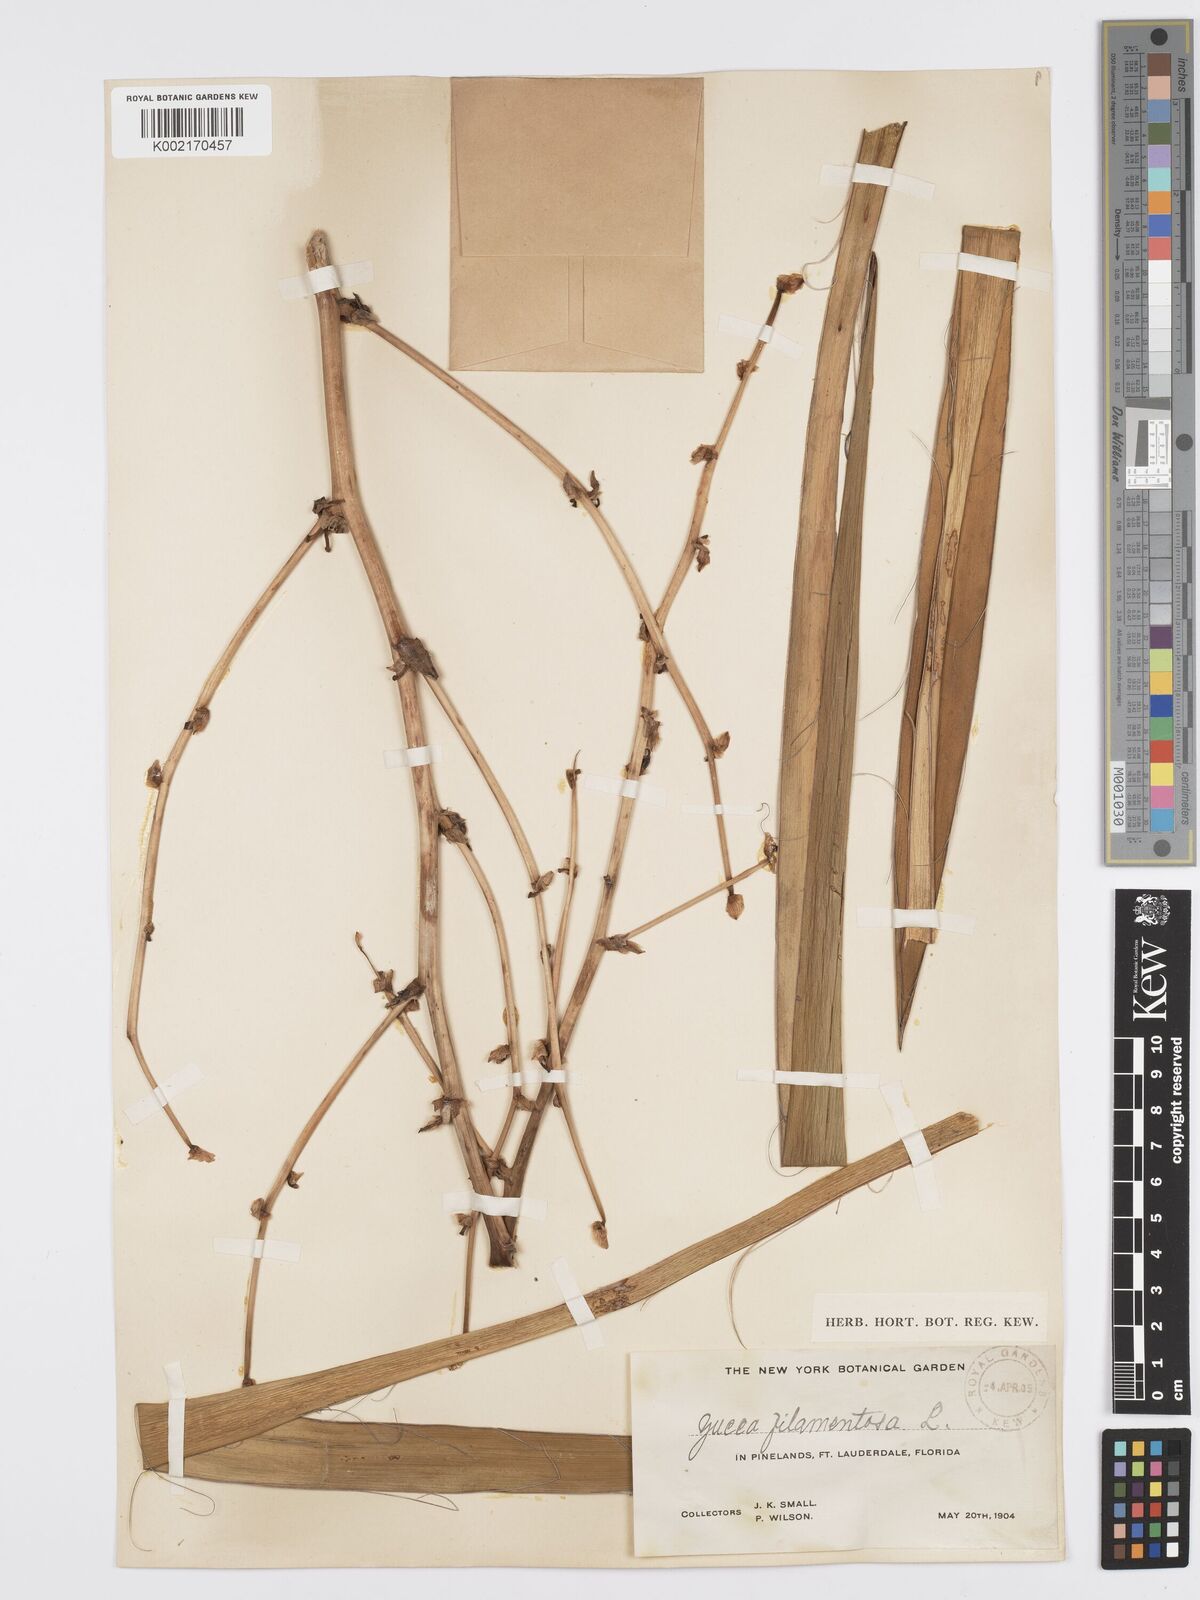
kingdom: Plantae
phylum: Tracheophyta
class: Liliopsida
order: Asparagales
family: Asparagaceae
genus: Yucca
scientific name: Yucca filamentosa
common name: Adam's-needle
